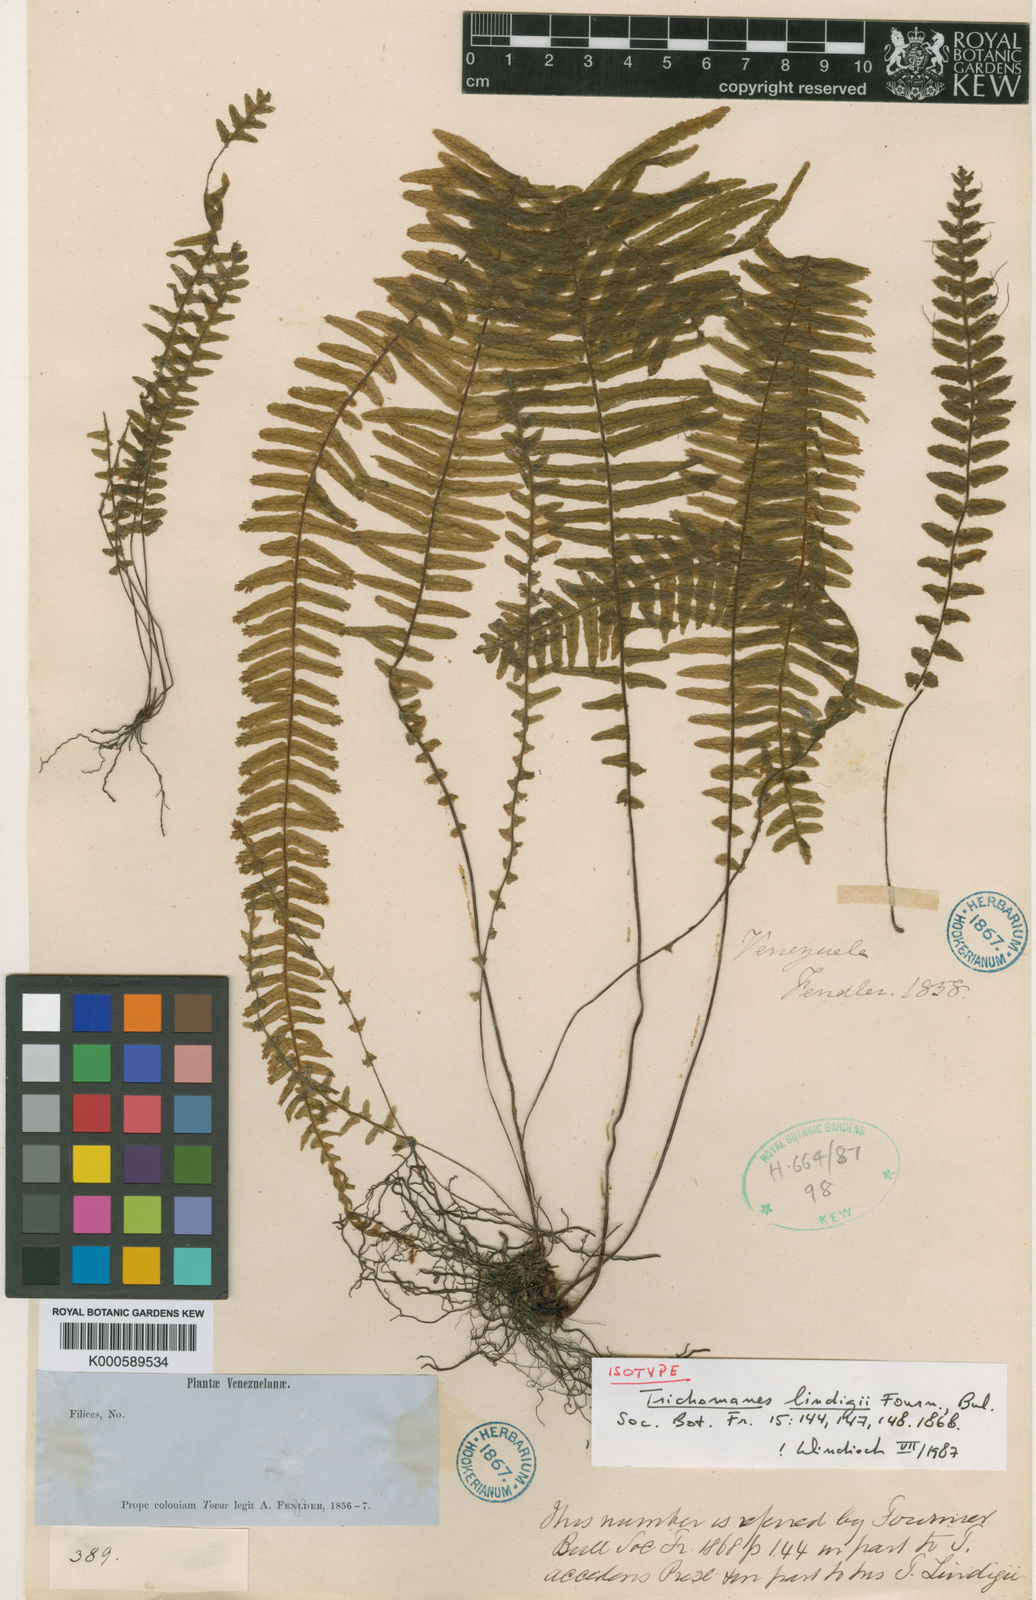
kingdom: Plantae
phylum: Tracheophyta
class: Polypodiopsida
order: Hymenophyllales
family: Hymenophyllaceae
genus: Trichomanes
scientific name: Trichomanes crispum
